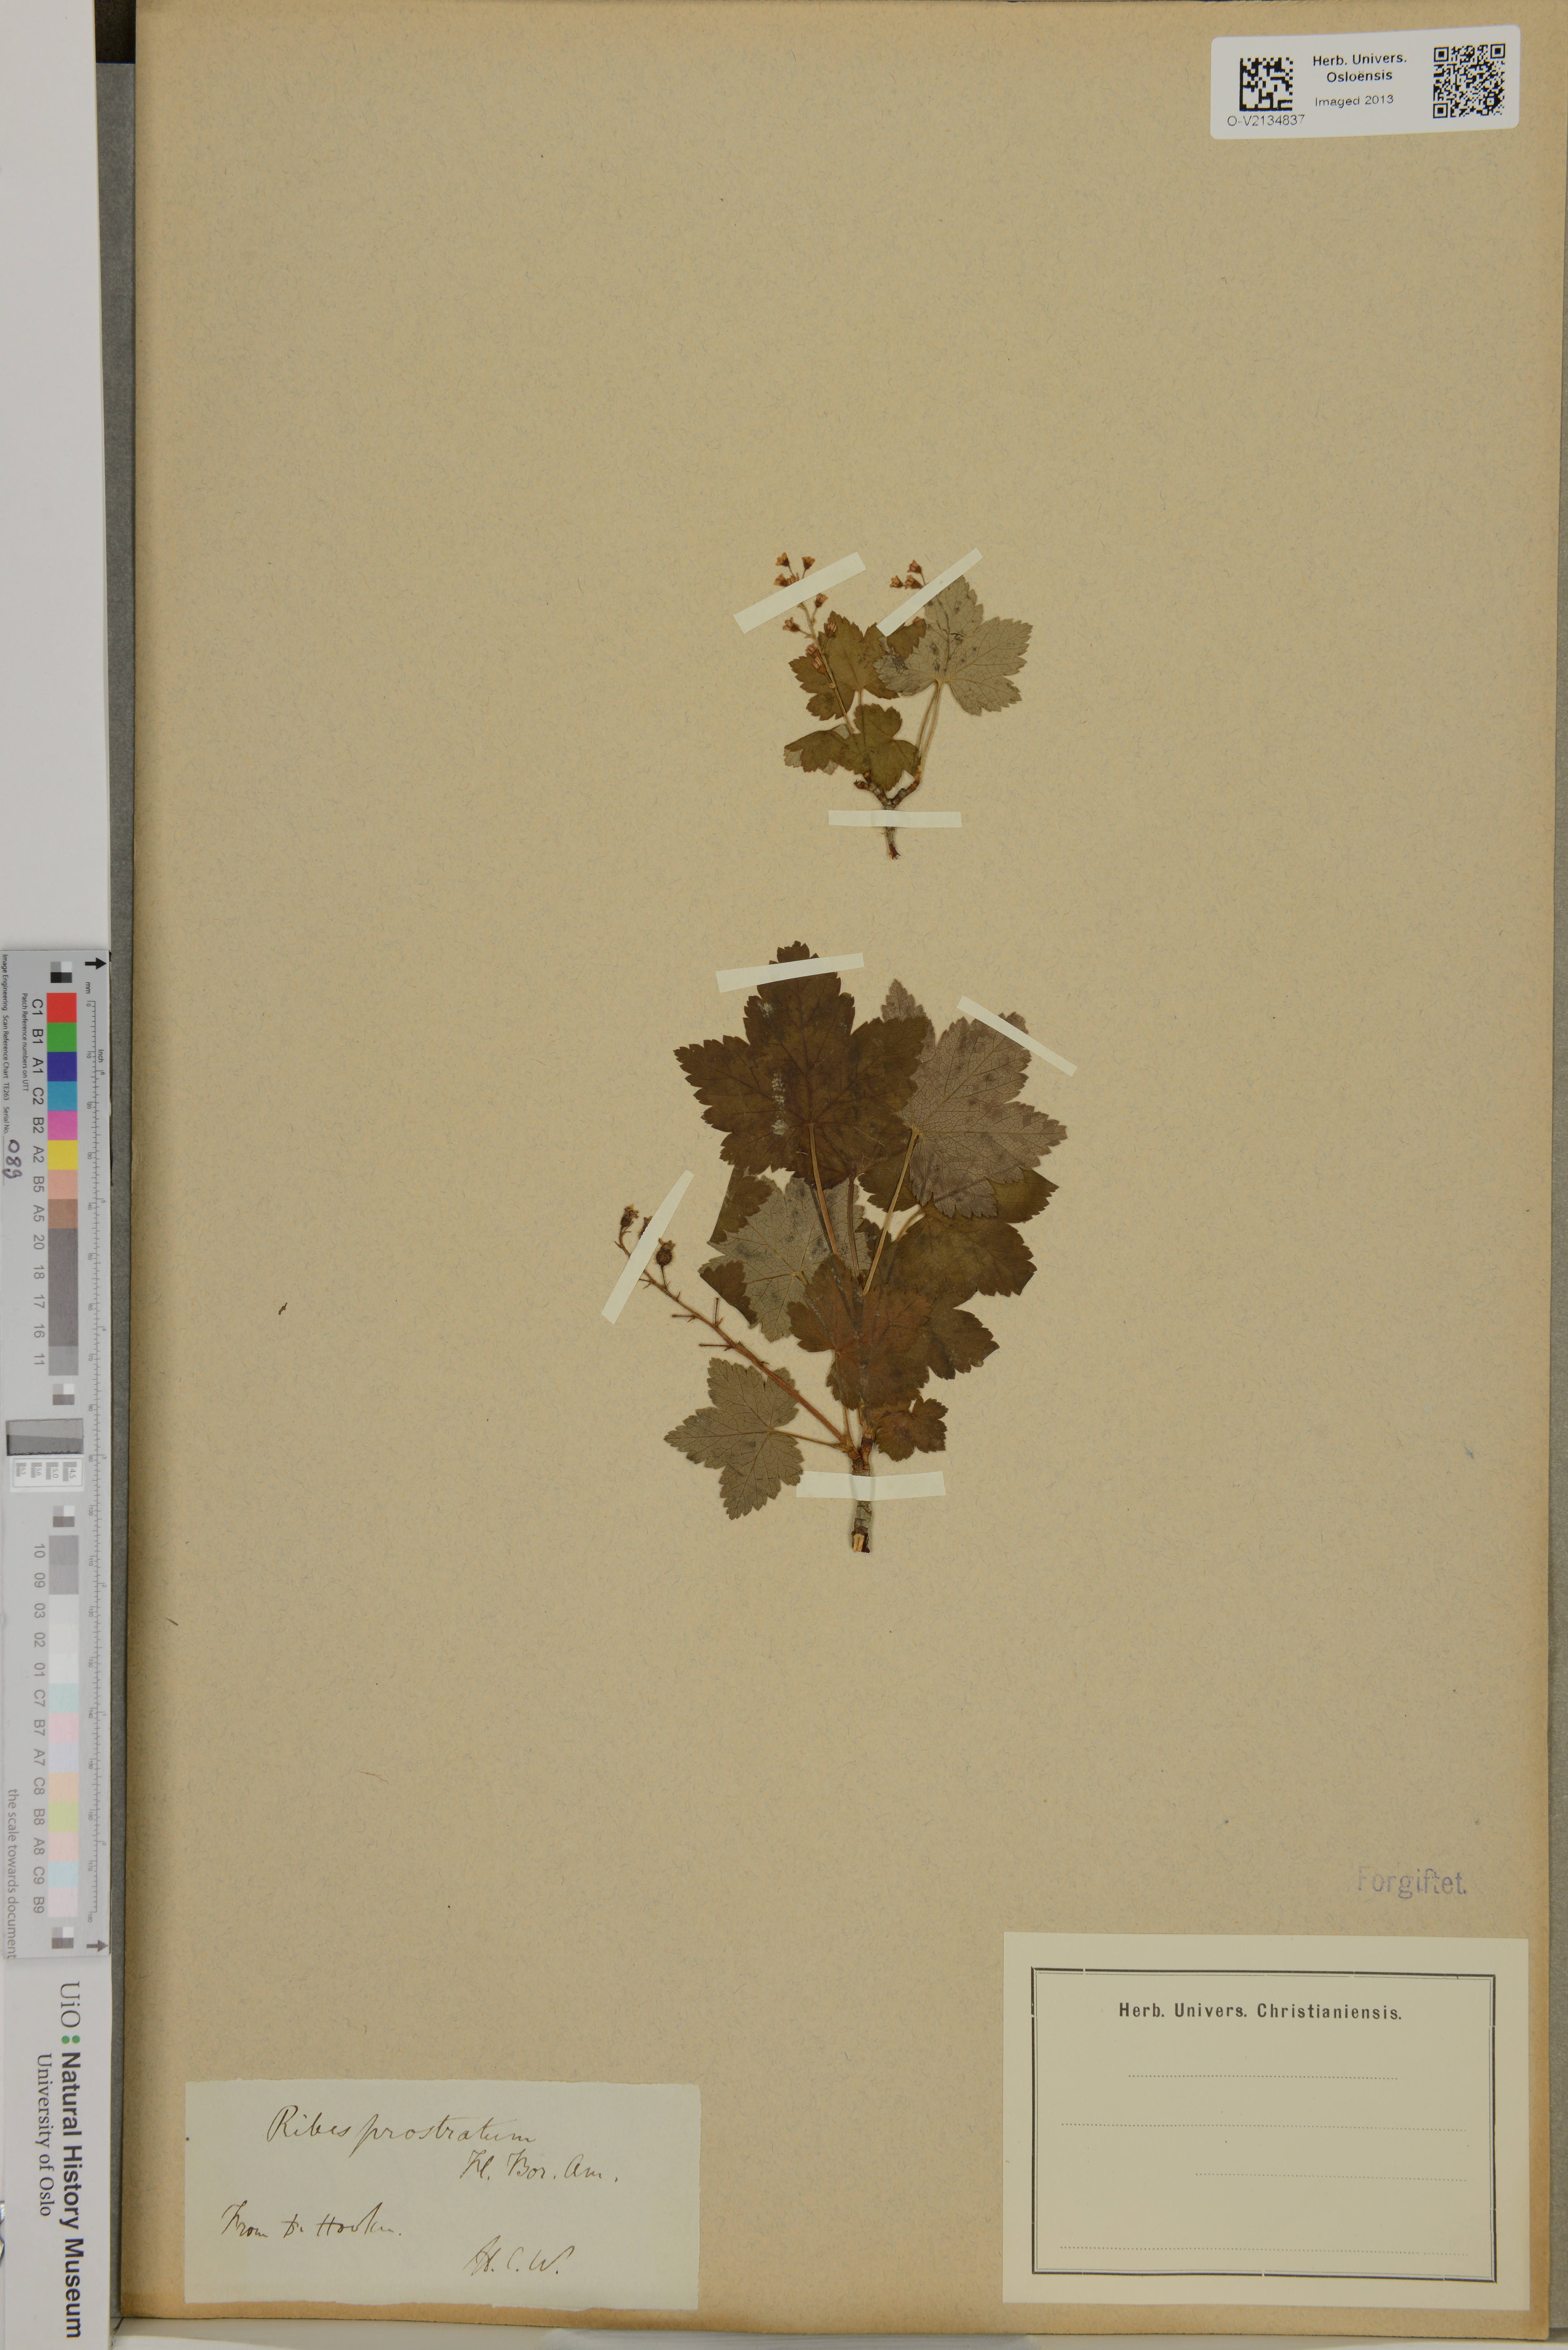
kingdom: Plantae
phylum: Tracheophyta
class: Magnoliopsida
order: Saxifragales
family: Grossulariaceae
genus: Ribes
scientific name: Ribes glandulosum
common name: Skunk currant
